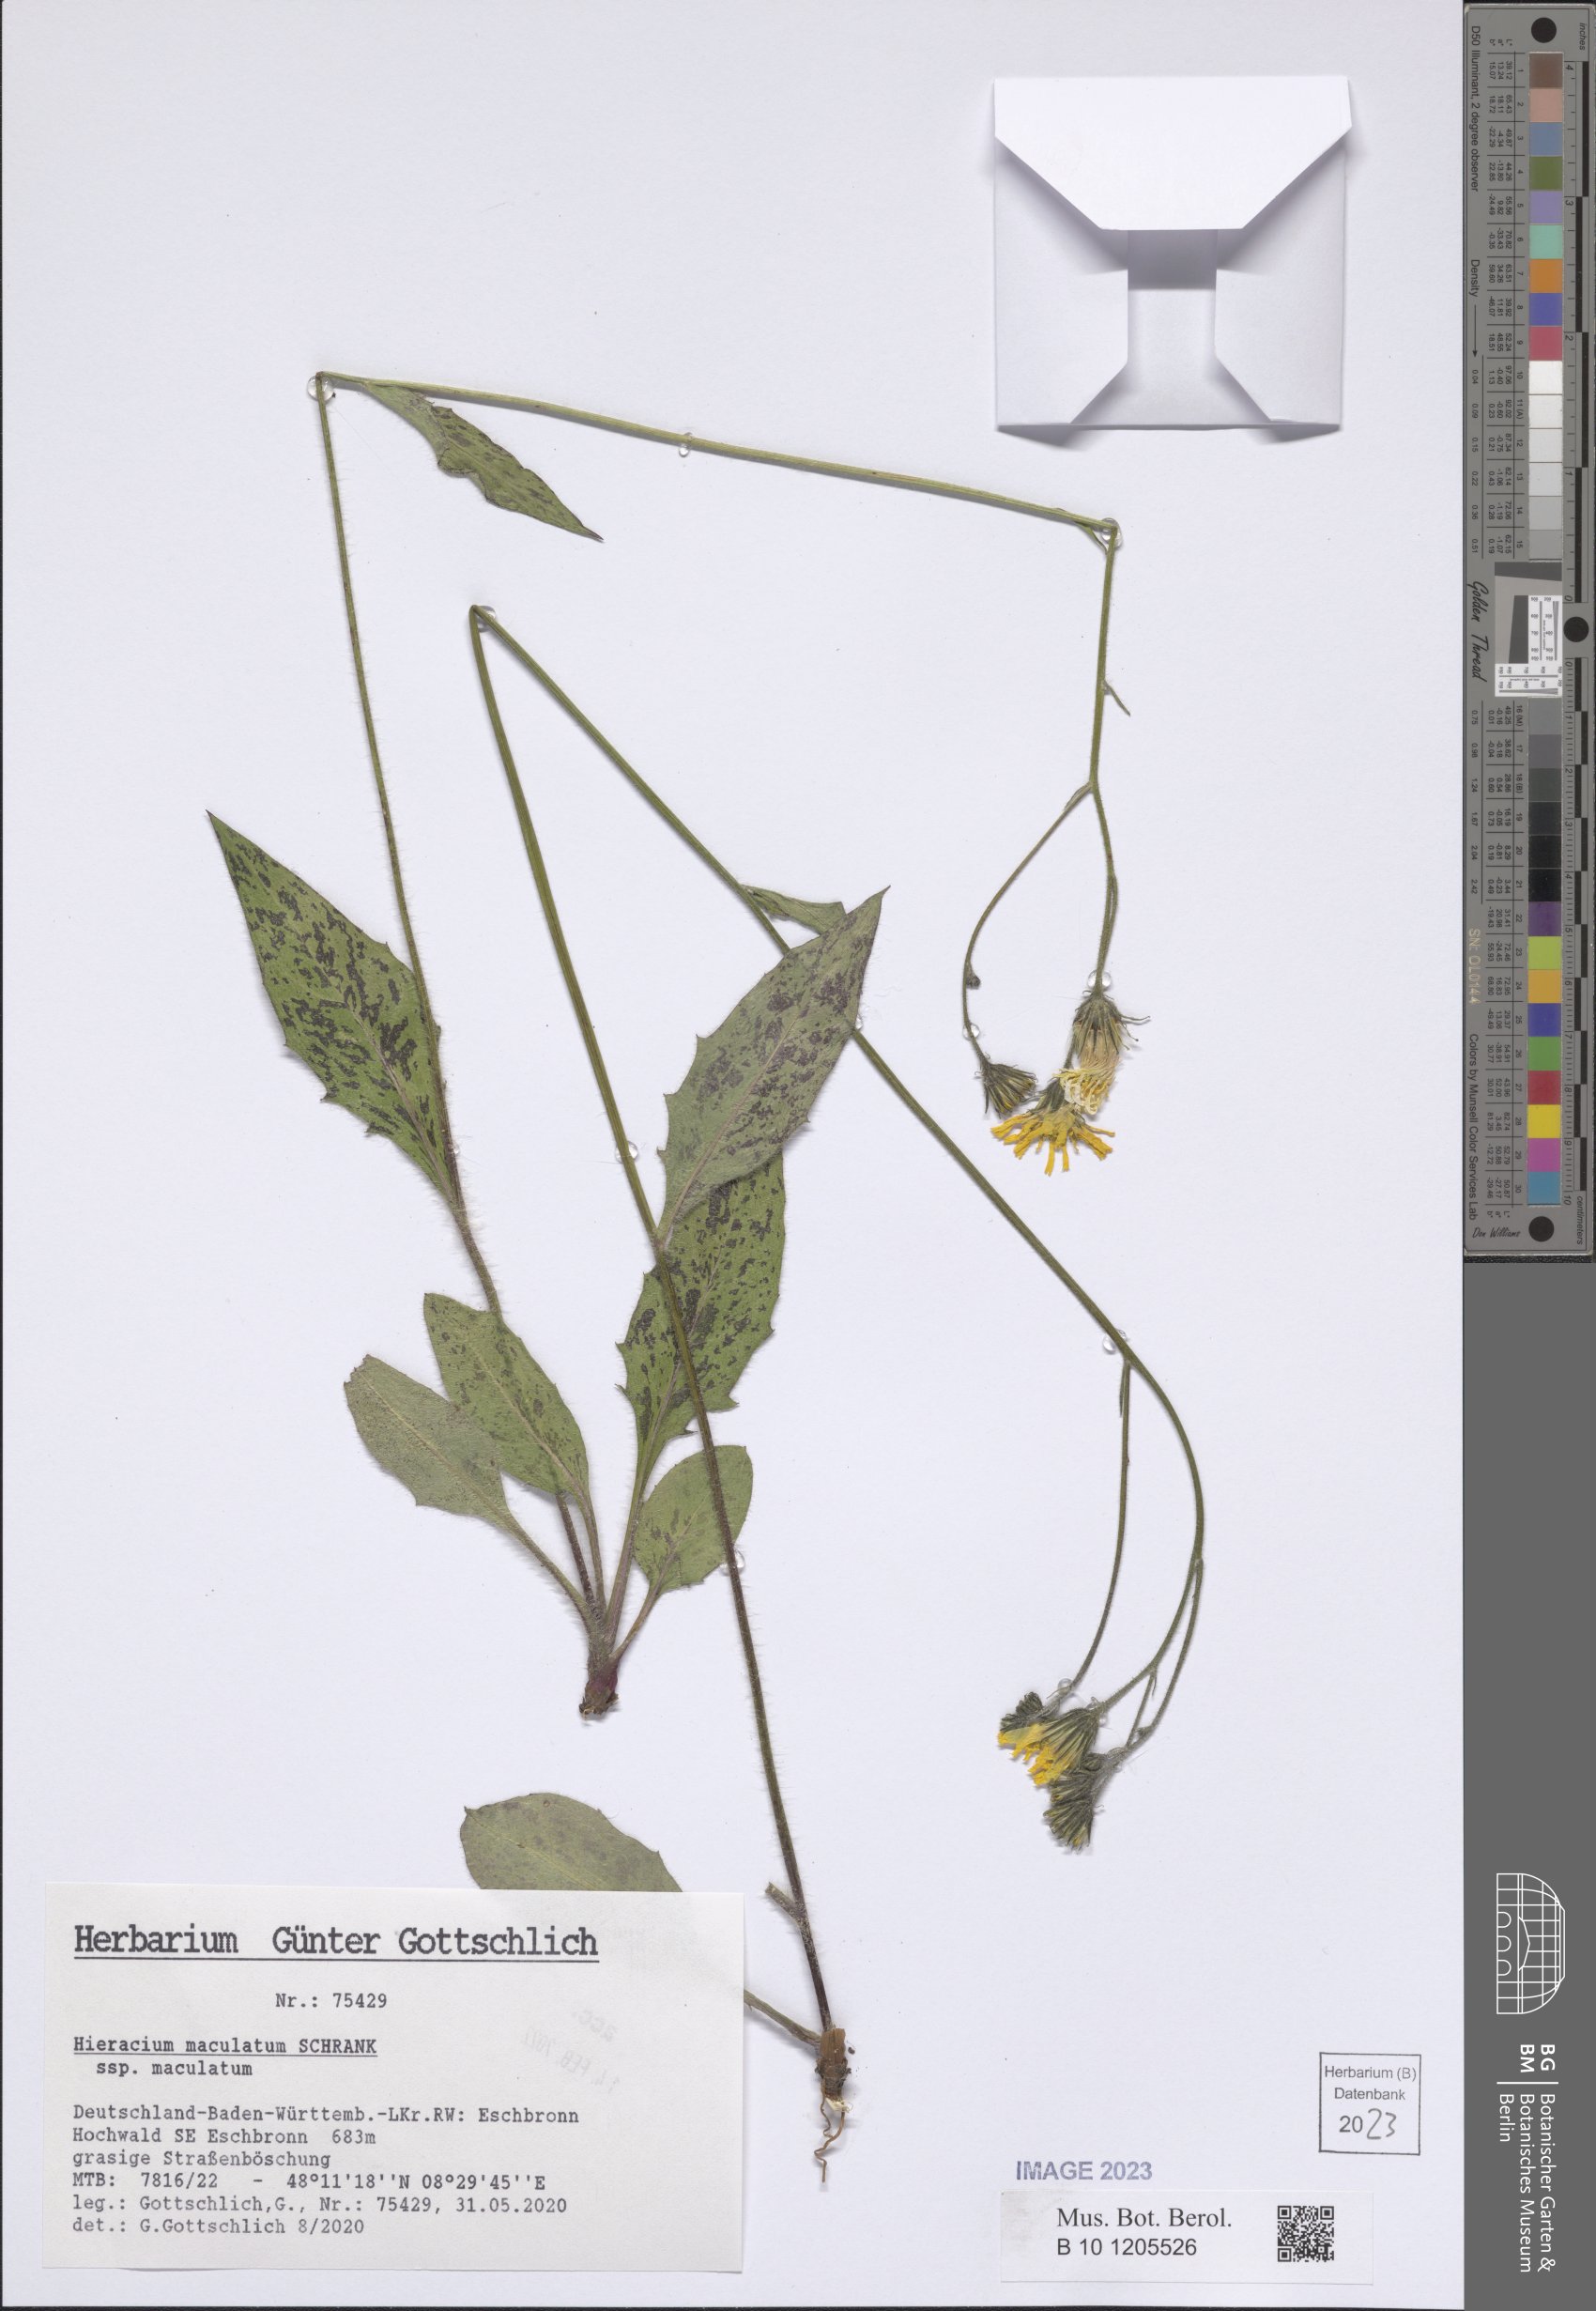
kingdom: Plantae
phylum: Tracheophyta
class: Magnoliopsida
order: Asterales
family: Asteraceae
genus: Hieracium
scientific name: Hieracium maculatum
